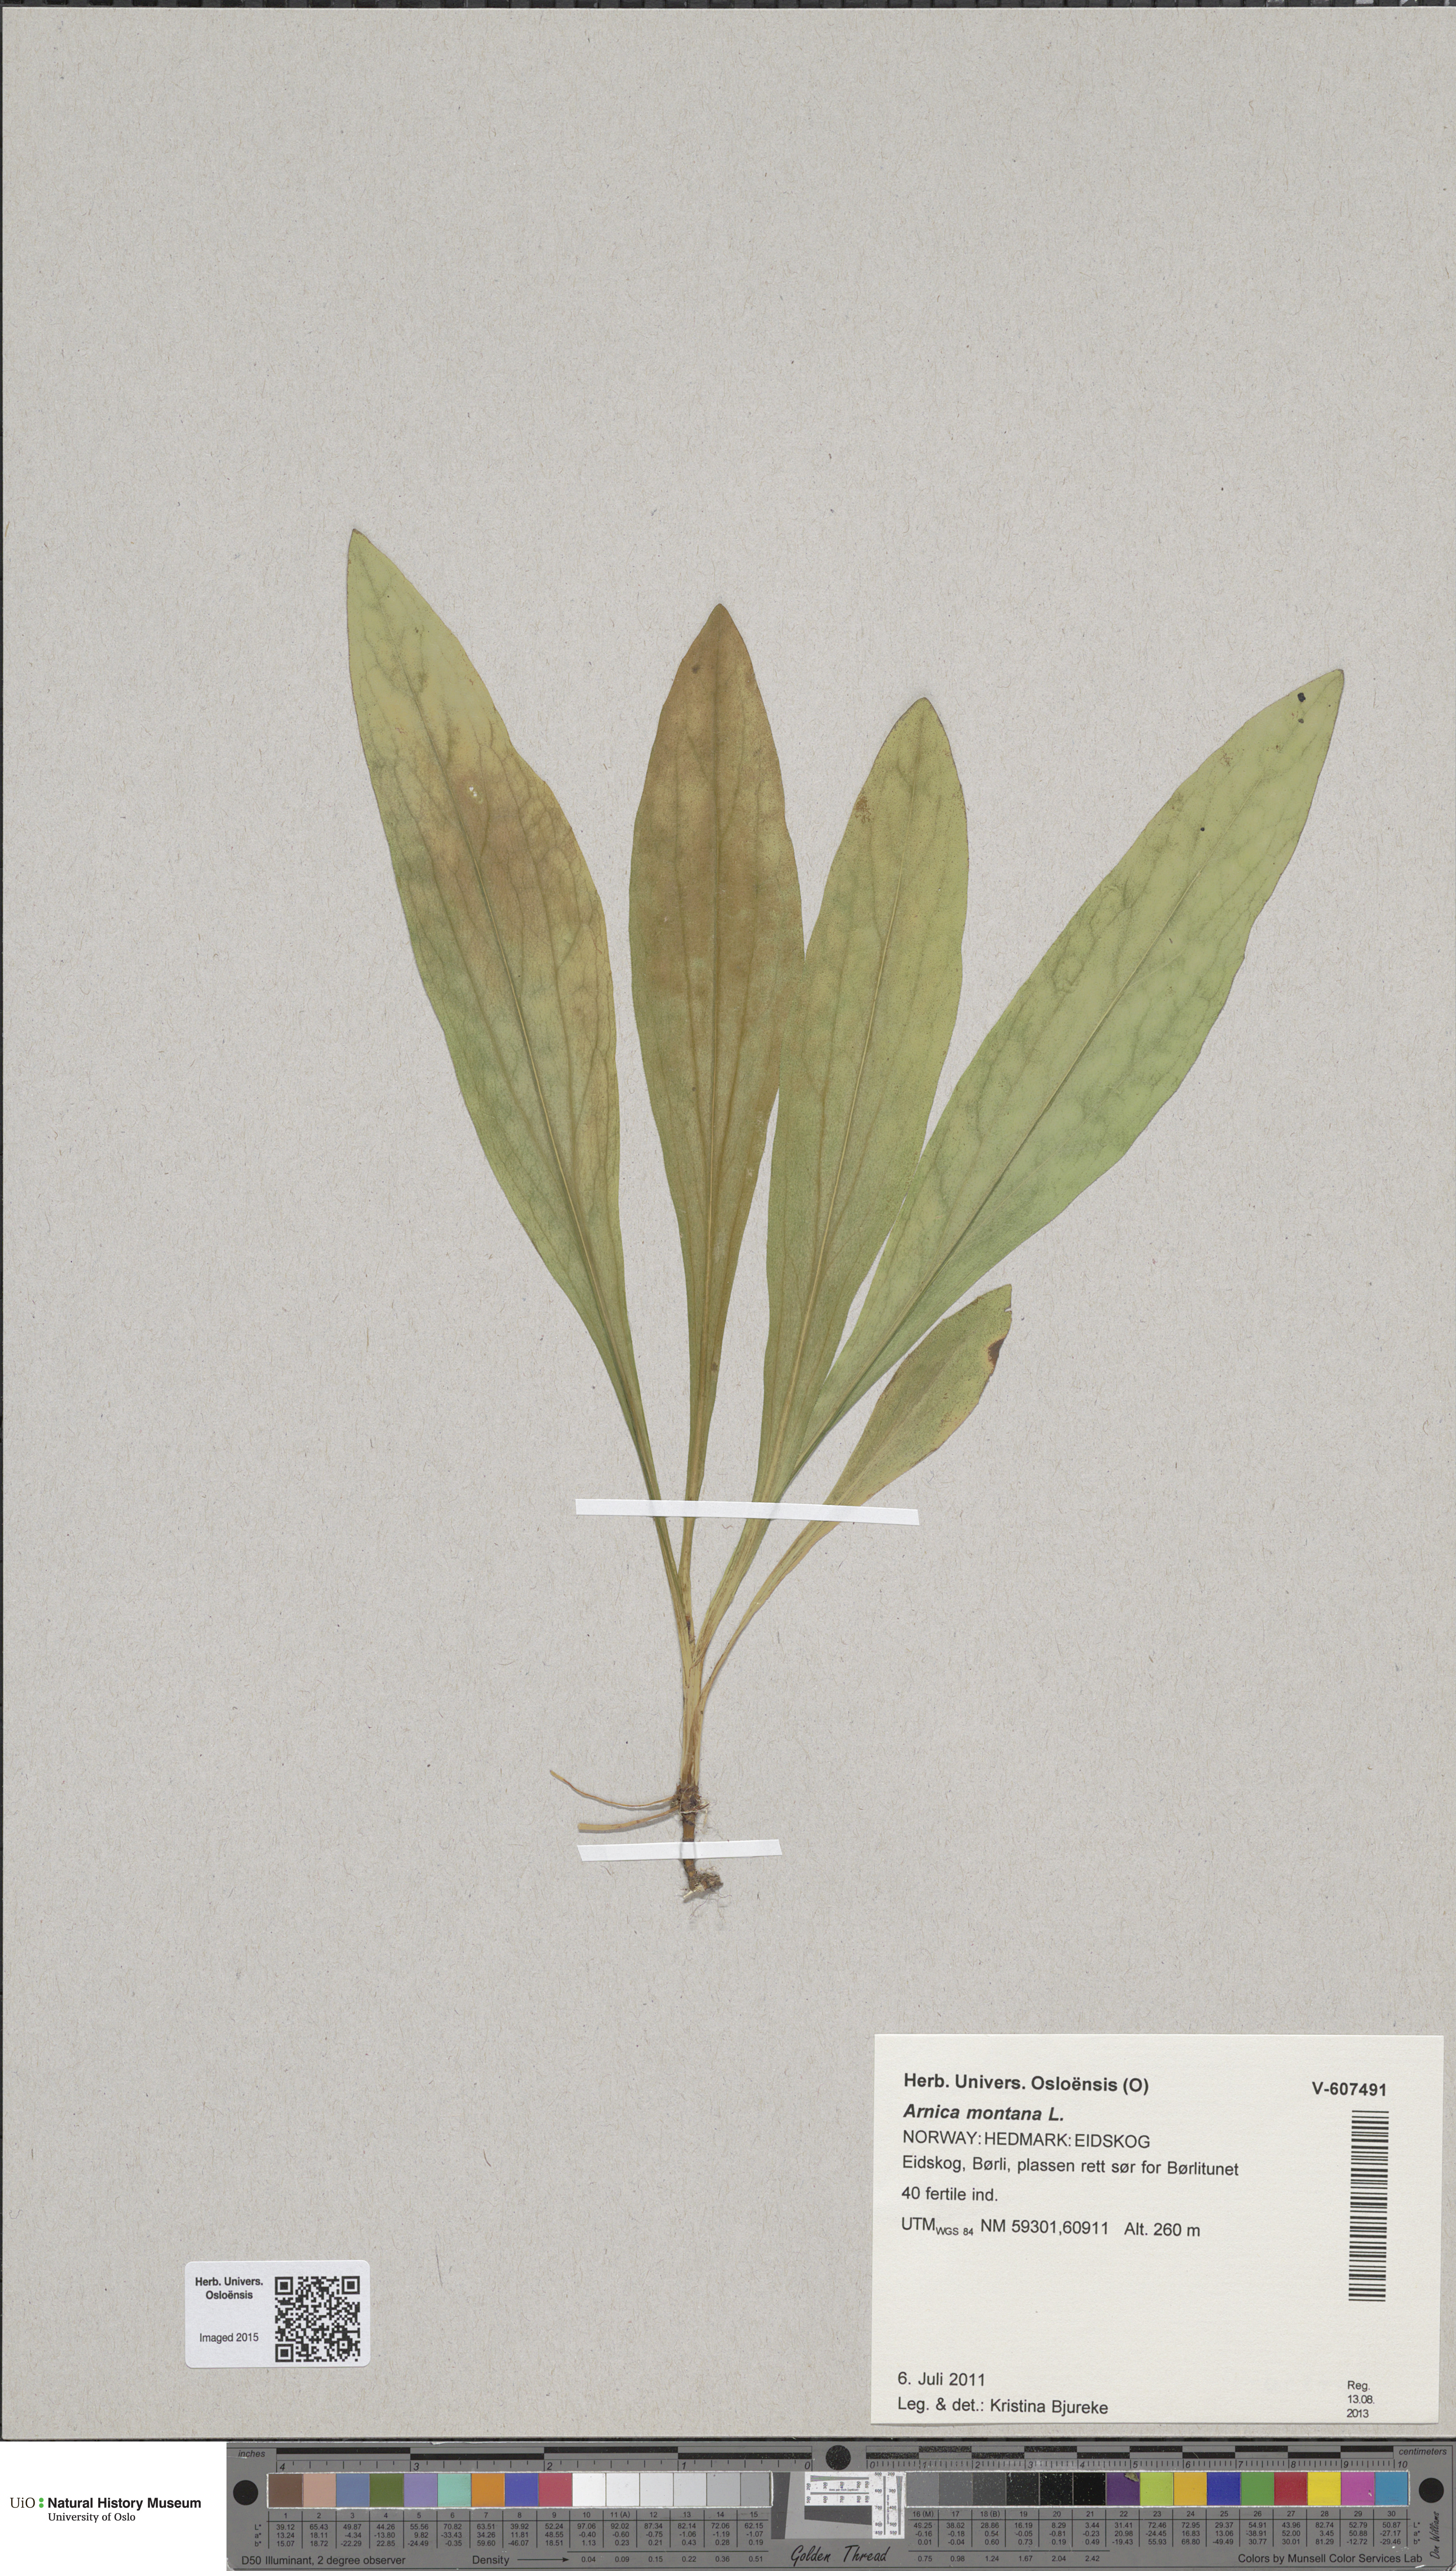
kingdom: Plantae
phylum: Tracheophyta
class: Magnoliopsida
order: Asterales
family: Asteraceae
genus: Arnica
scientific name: Arnica montana
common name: Leopard's bane
